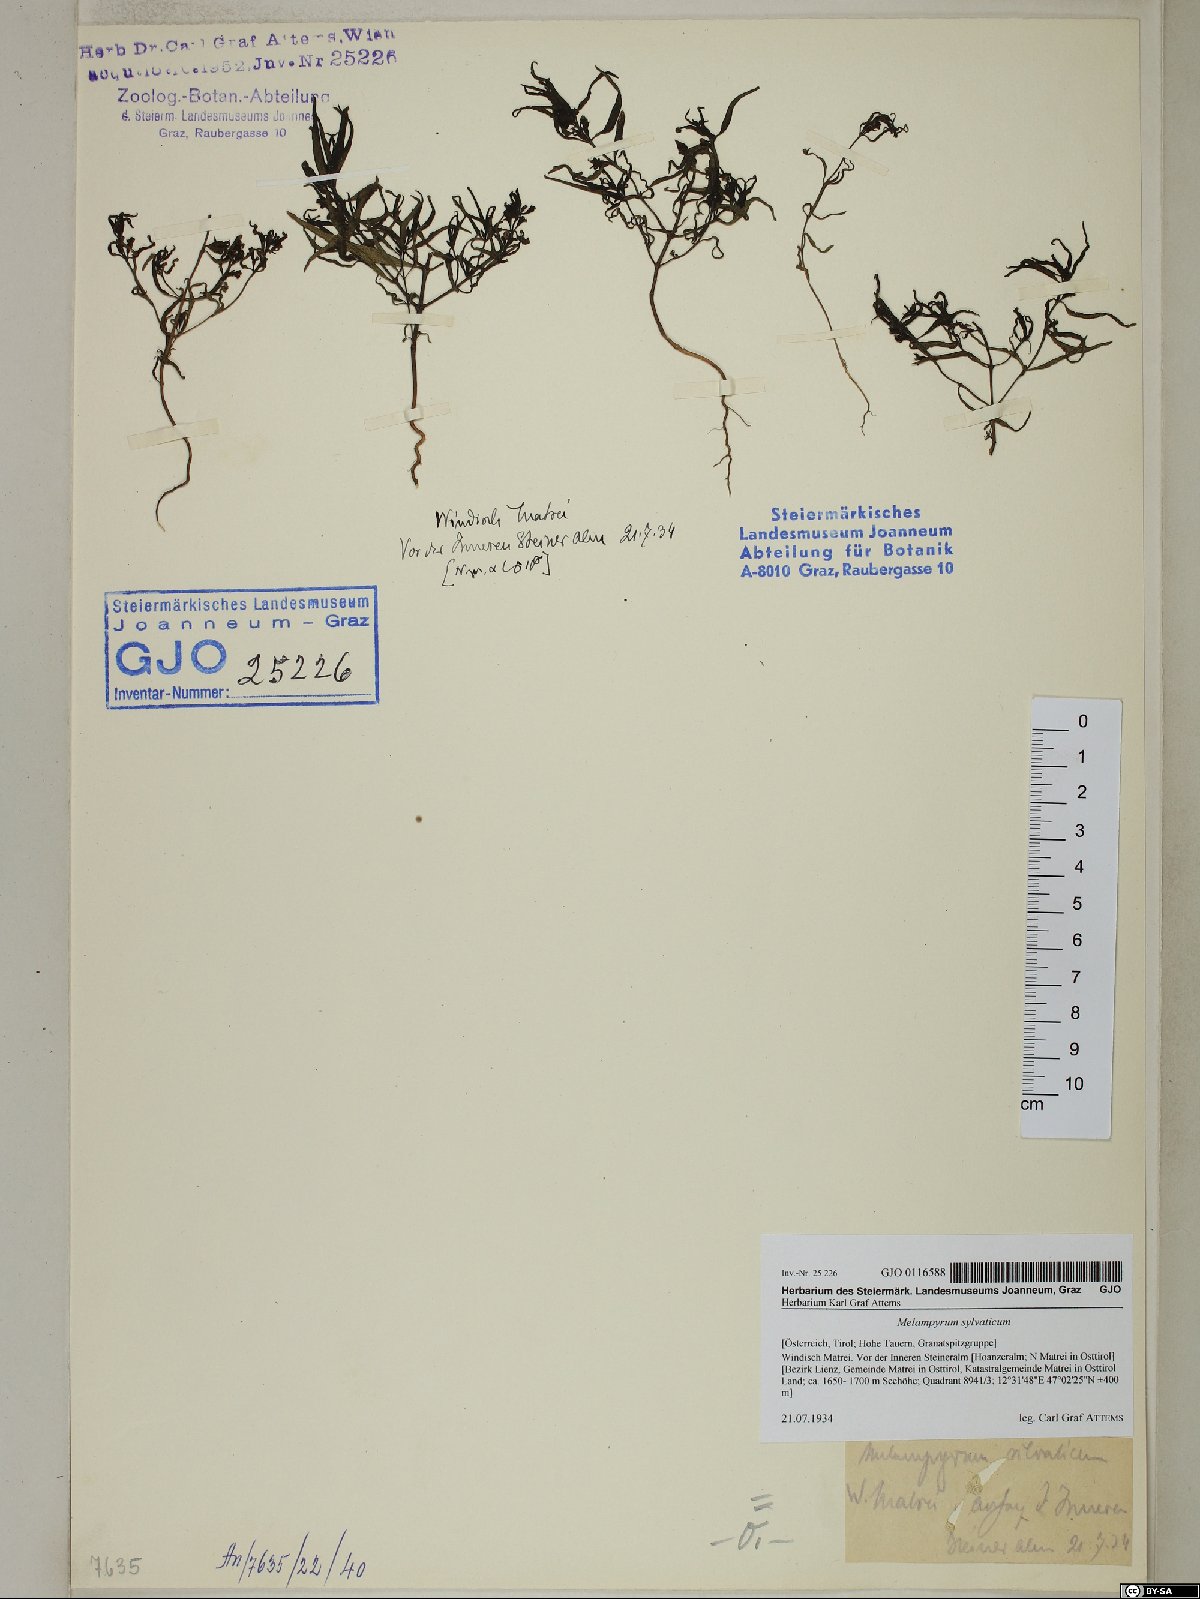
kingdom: Plantae
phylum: Tracheophyta
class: Magnoliopsida
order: Lamiales
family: Orobanchaceae
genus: Melampyrum
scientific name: Melampyrum sylvaticum
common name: Small cow-wheat
